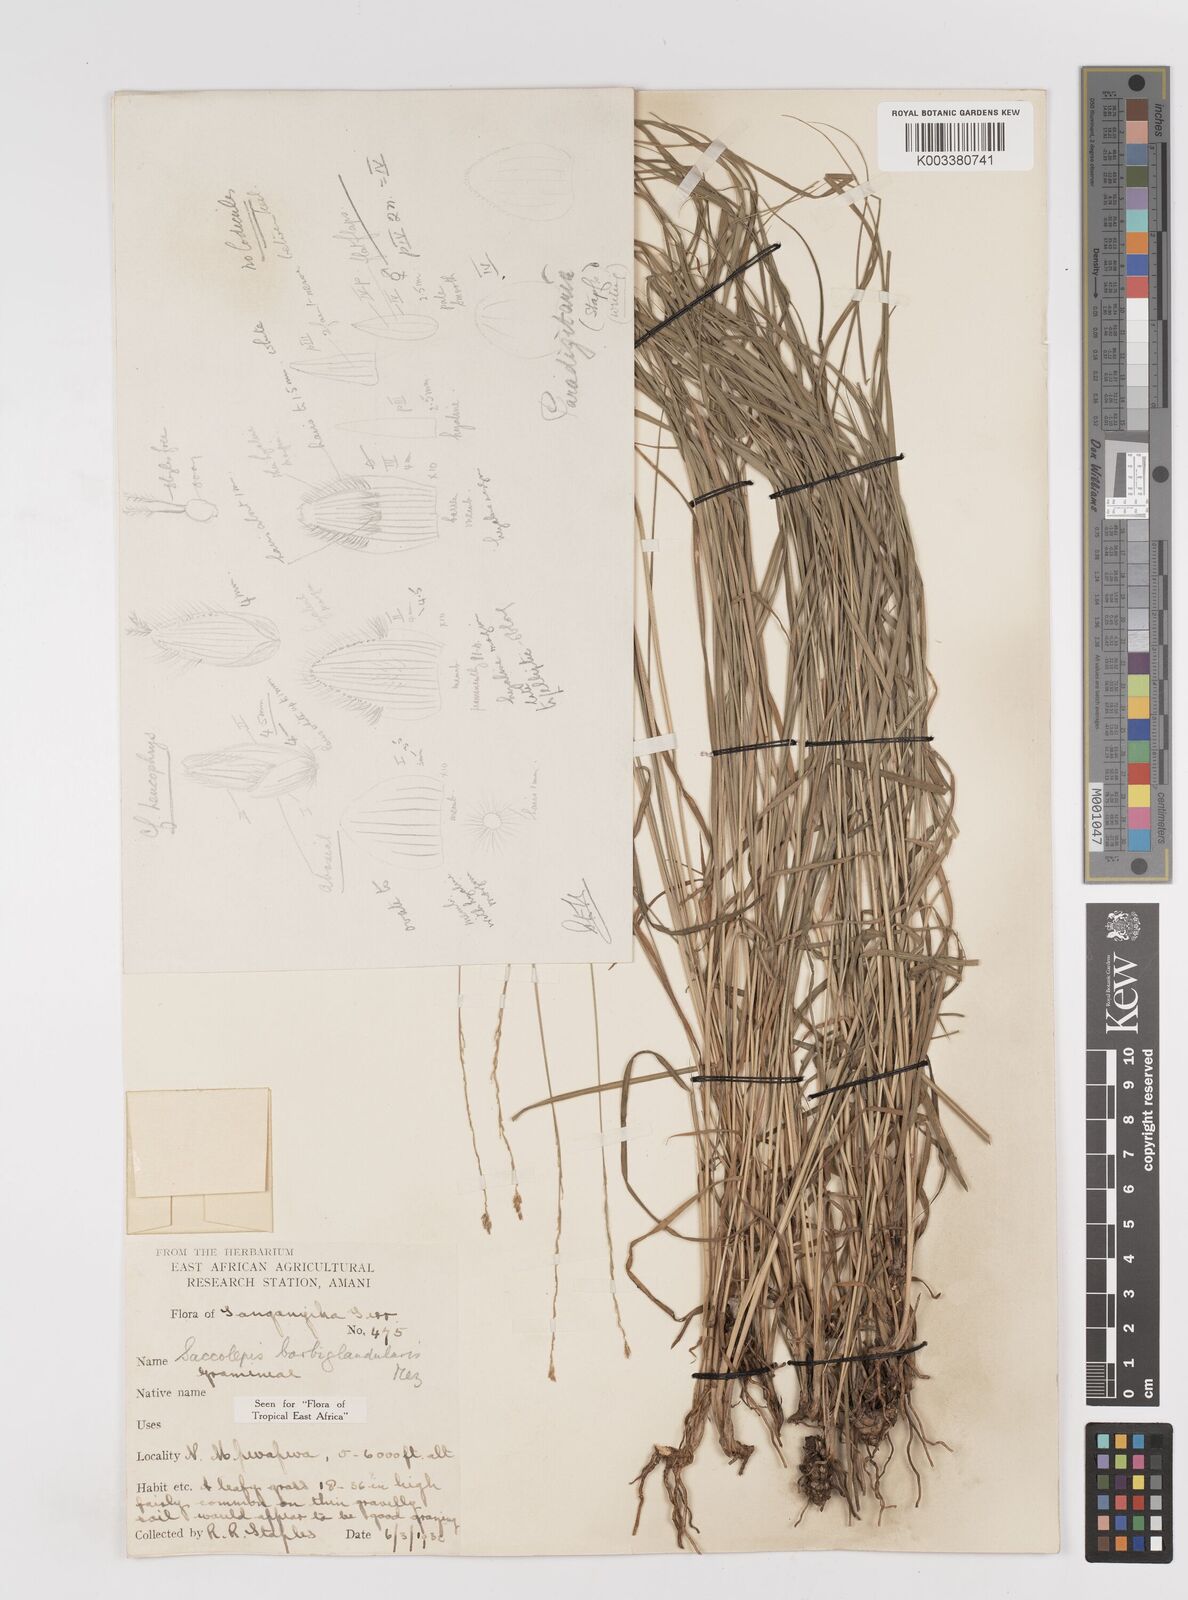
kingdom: Plantae
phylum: Tracheophyta
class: Liliopsida
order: Poales
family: Poaceae
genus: Sacciolepis
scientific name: Sacciolepis transbarbata
